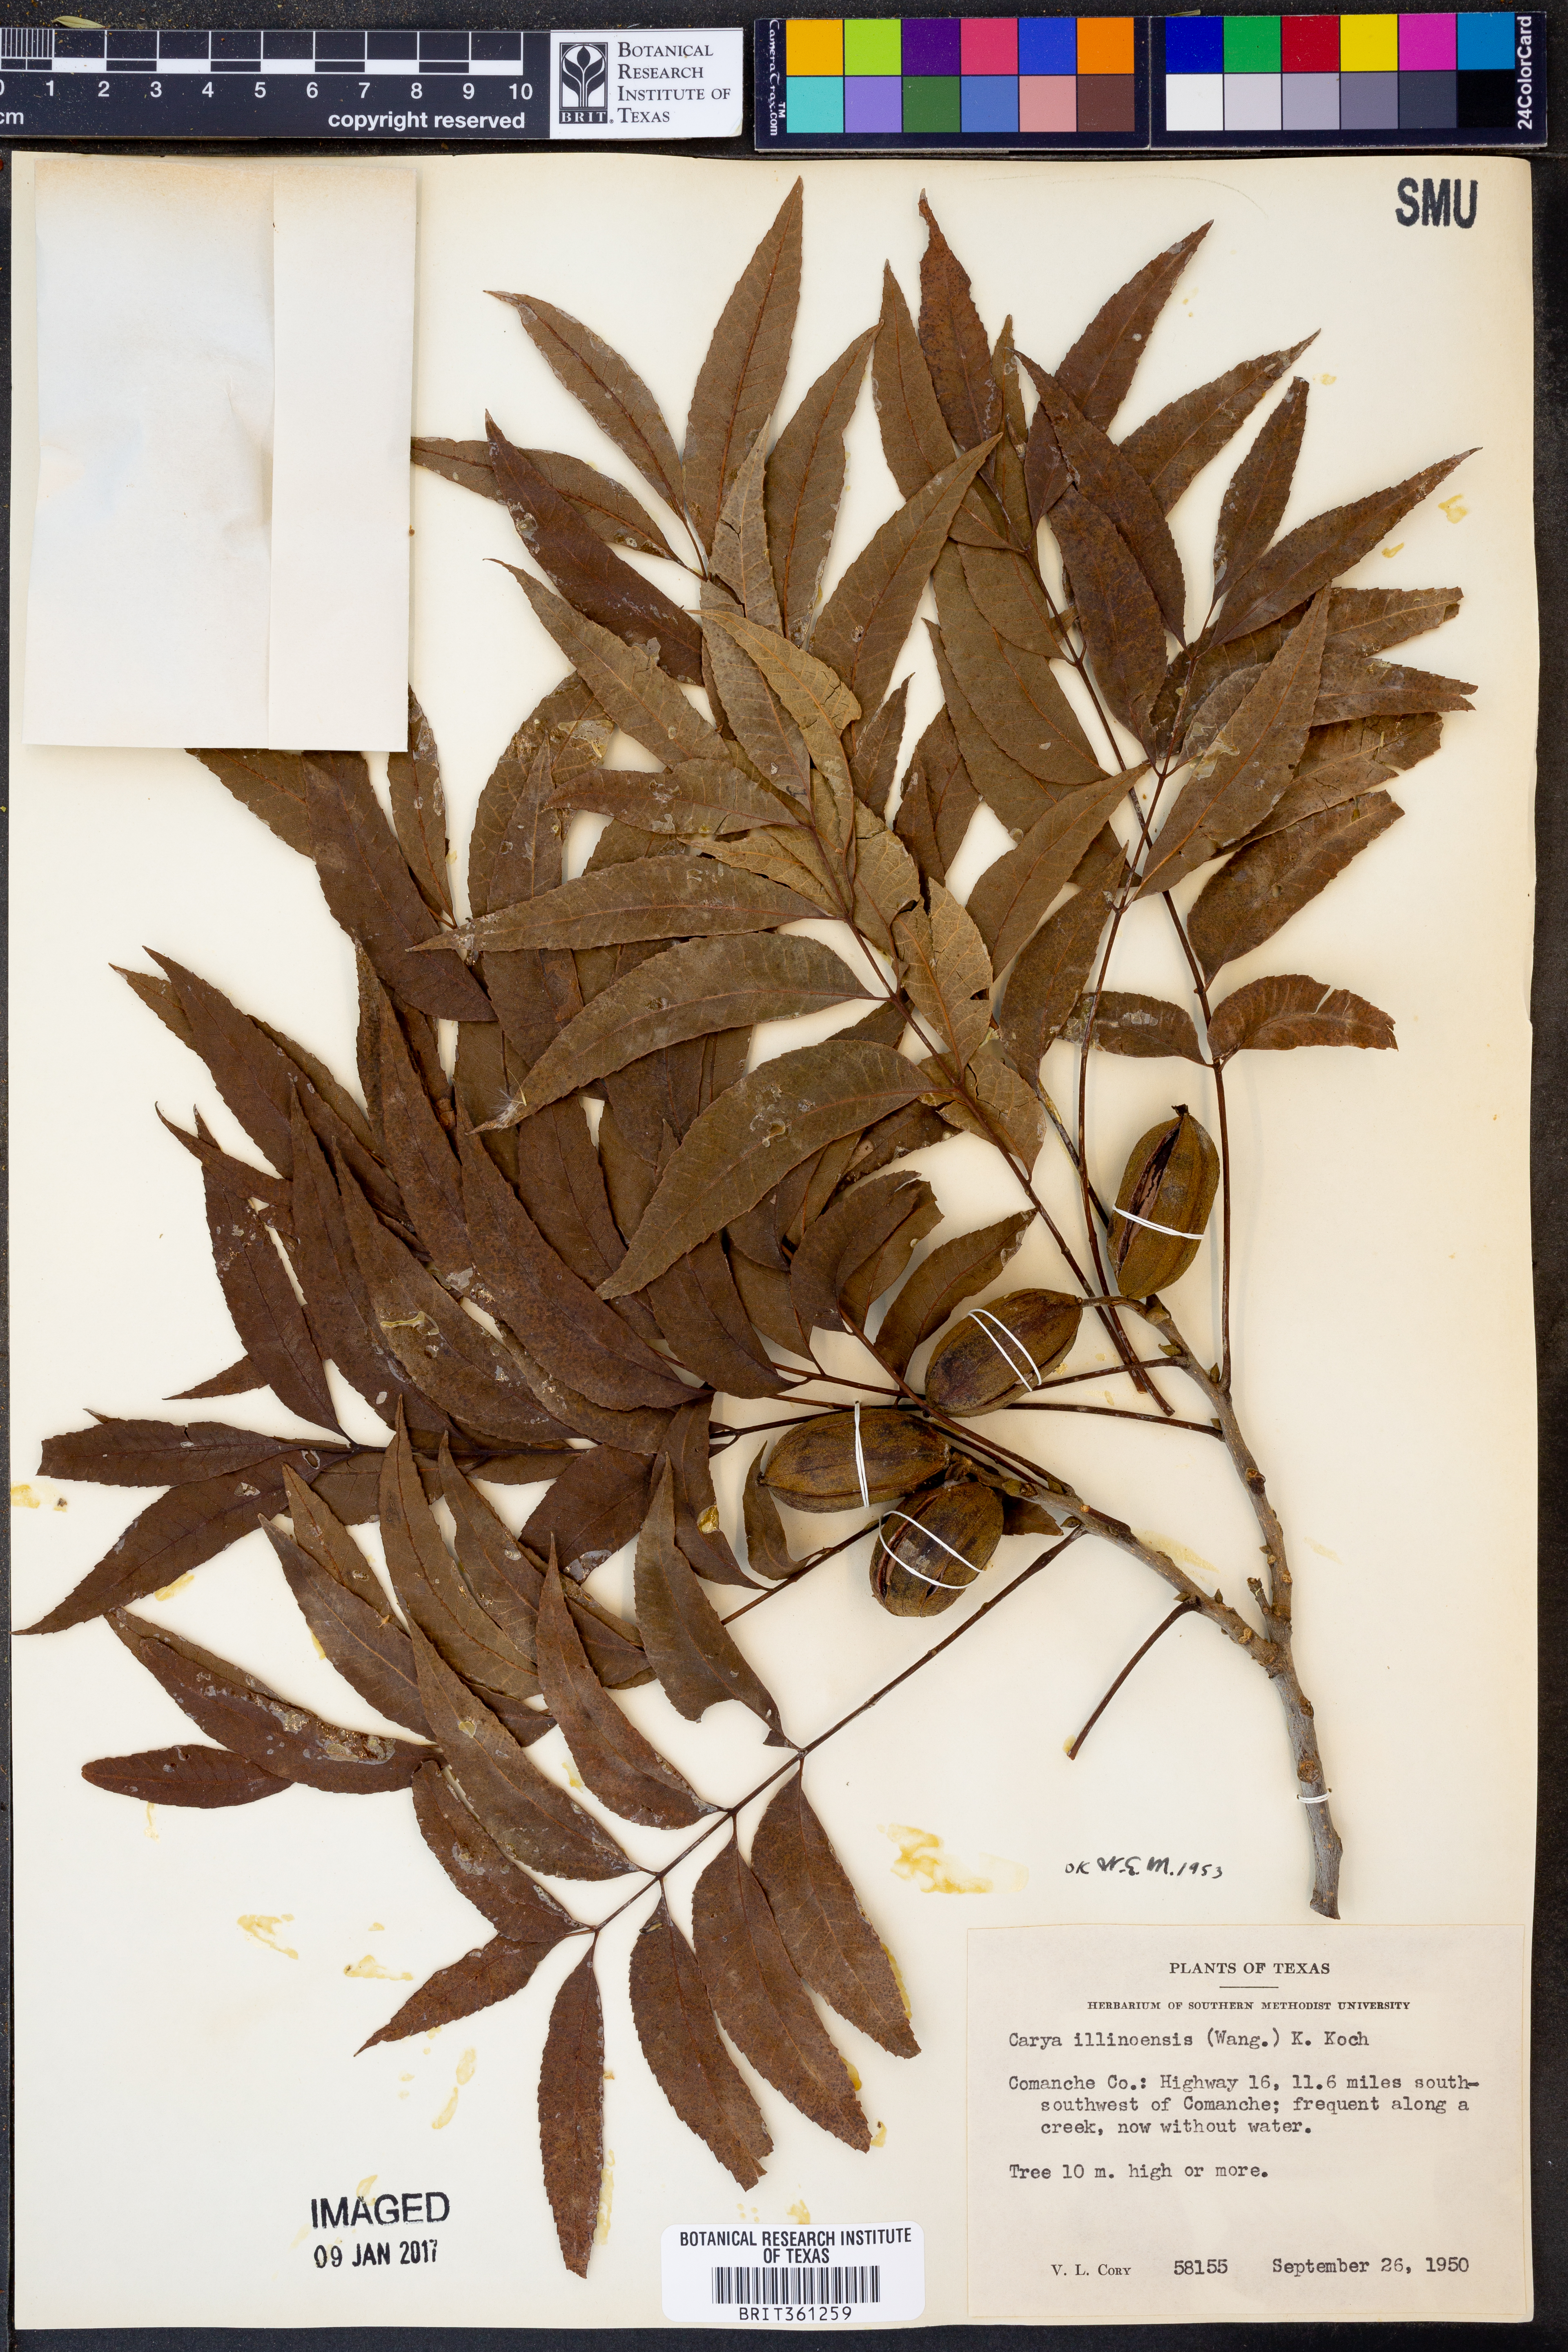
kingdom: Plantae
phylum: Tracheophyta
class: Magnoliopsida
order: Fagales
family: Juglandaceae
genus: Carya
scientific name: Carya illinoinensis
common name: Pecan
